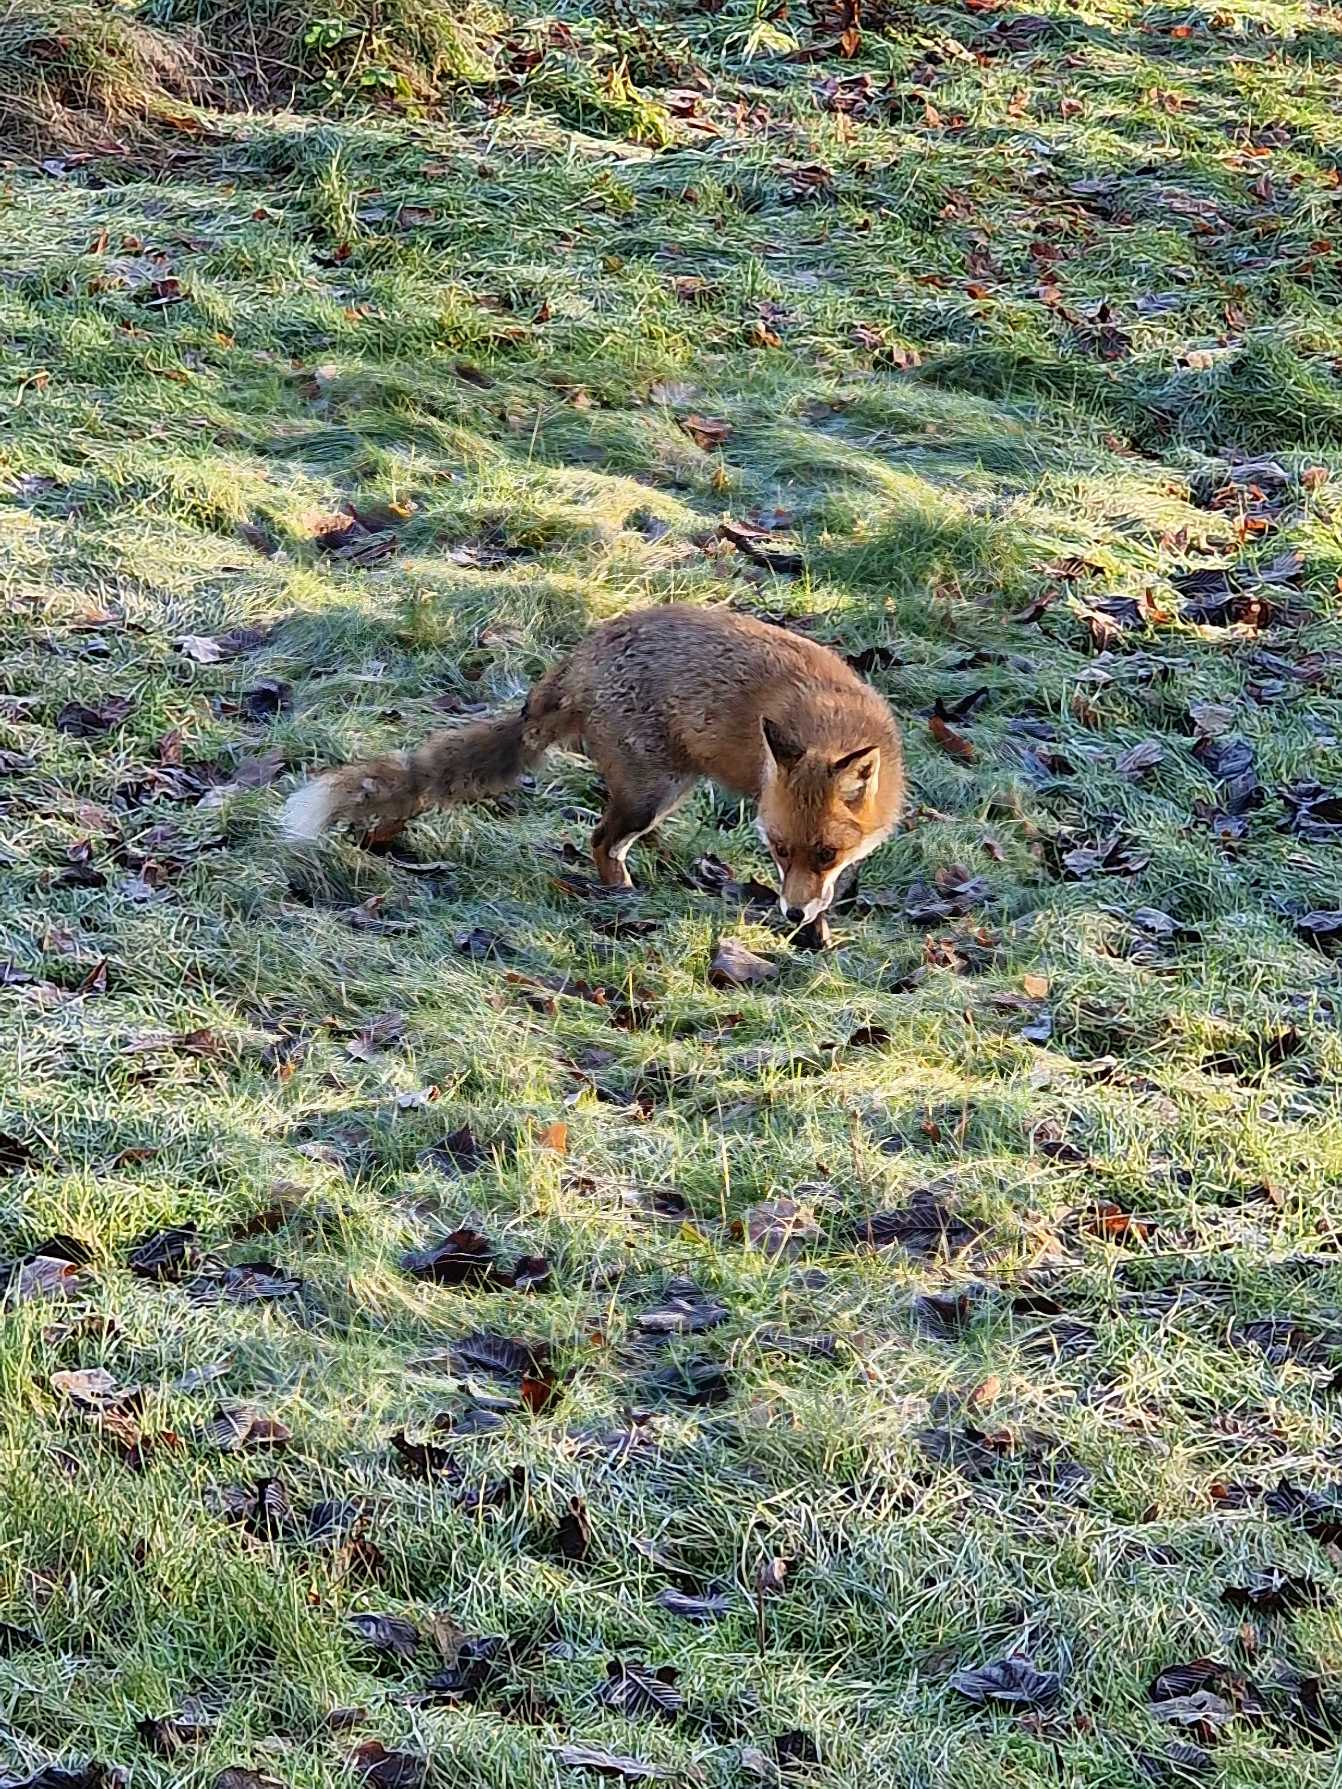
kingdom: Animalia
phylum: Chordata
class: Mammalia
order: Carnivora
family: Canidae
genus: Vulpes
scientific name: Vulpes vulpes
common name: Ræv
